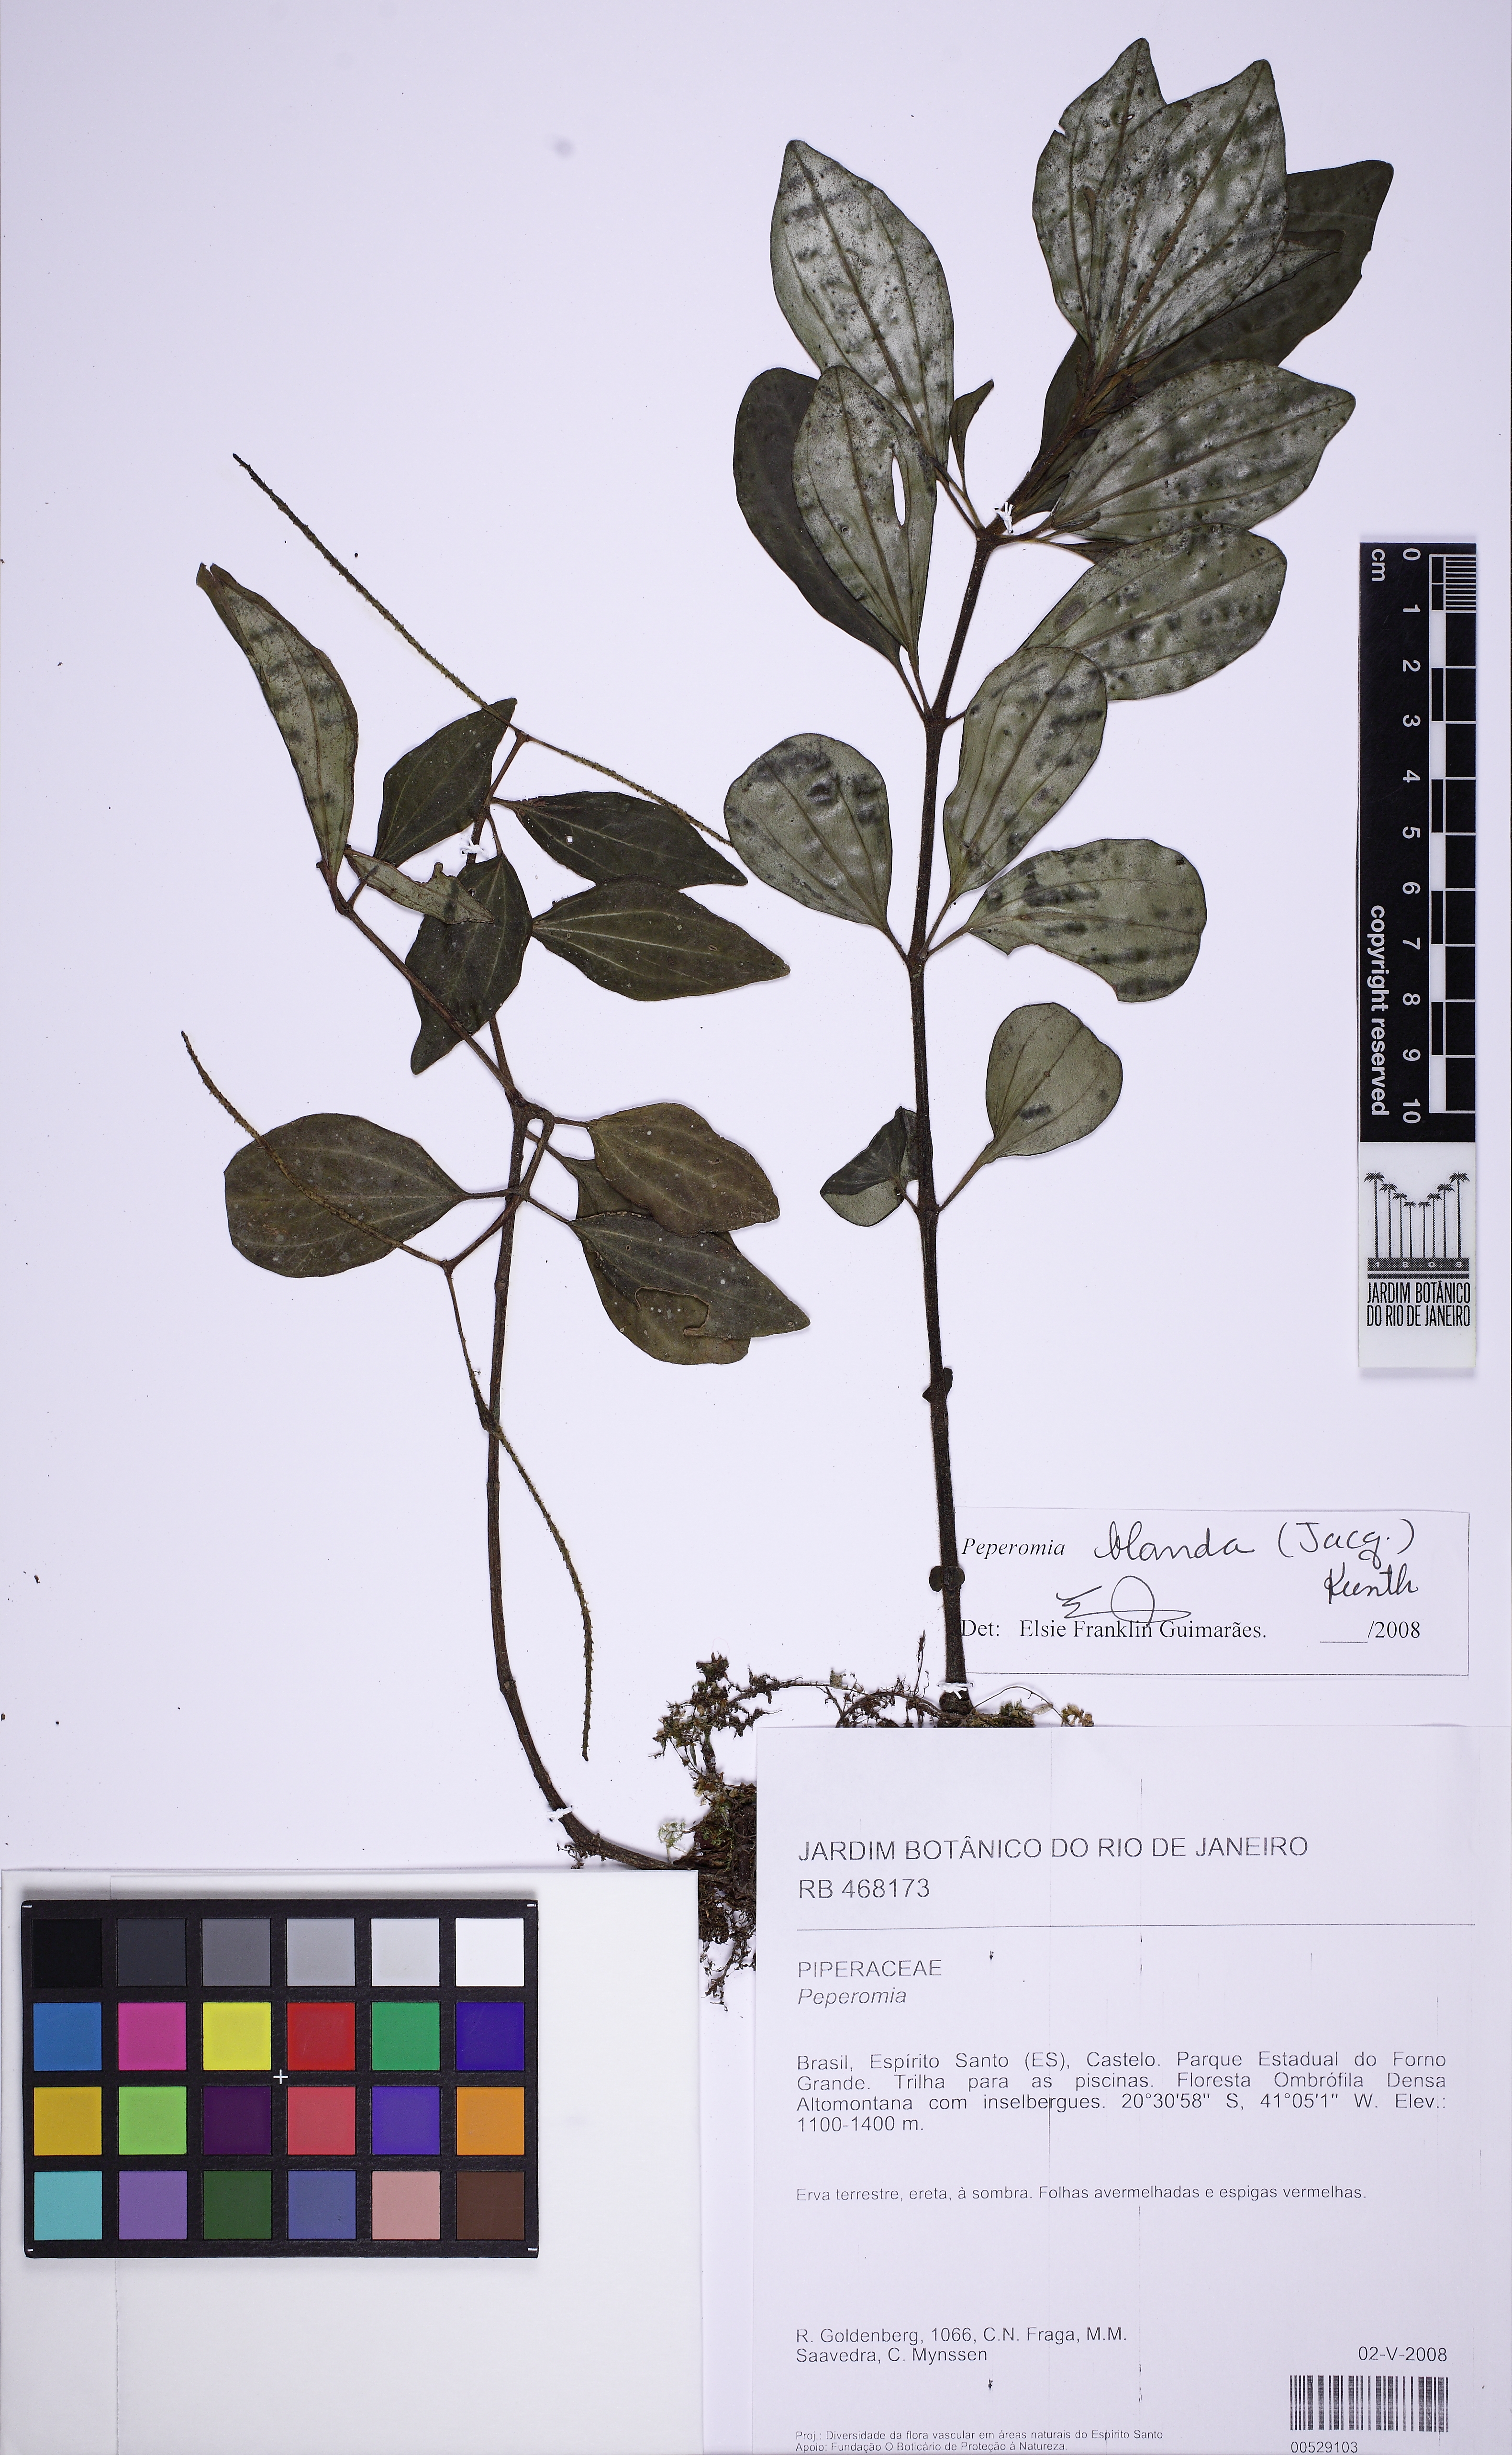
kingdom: Plantae
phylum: Tracheophyta
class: Magnoliopsida
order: Piperales
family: Piperaceae
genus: Peperomia
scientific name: Peperomia blanda
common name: Arid-land peperomia
